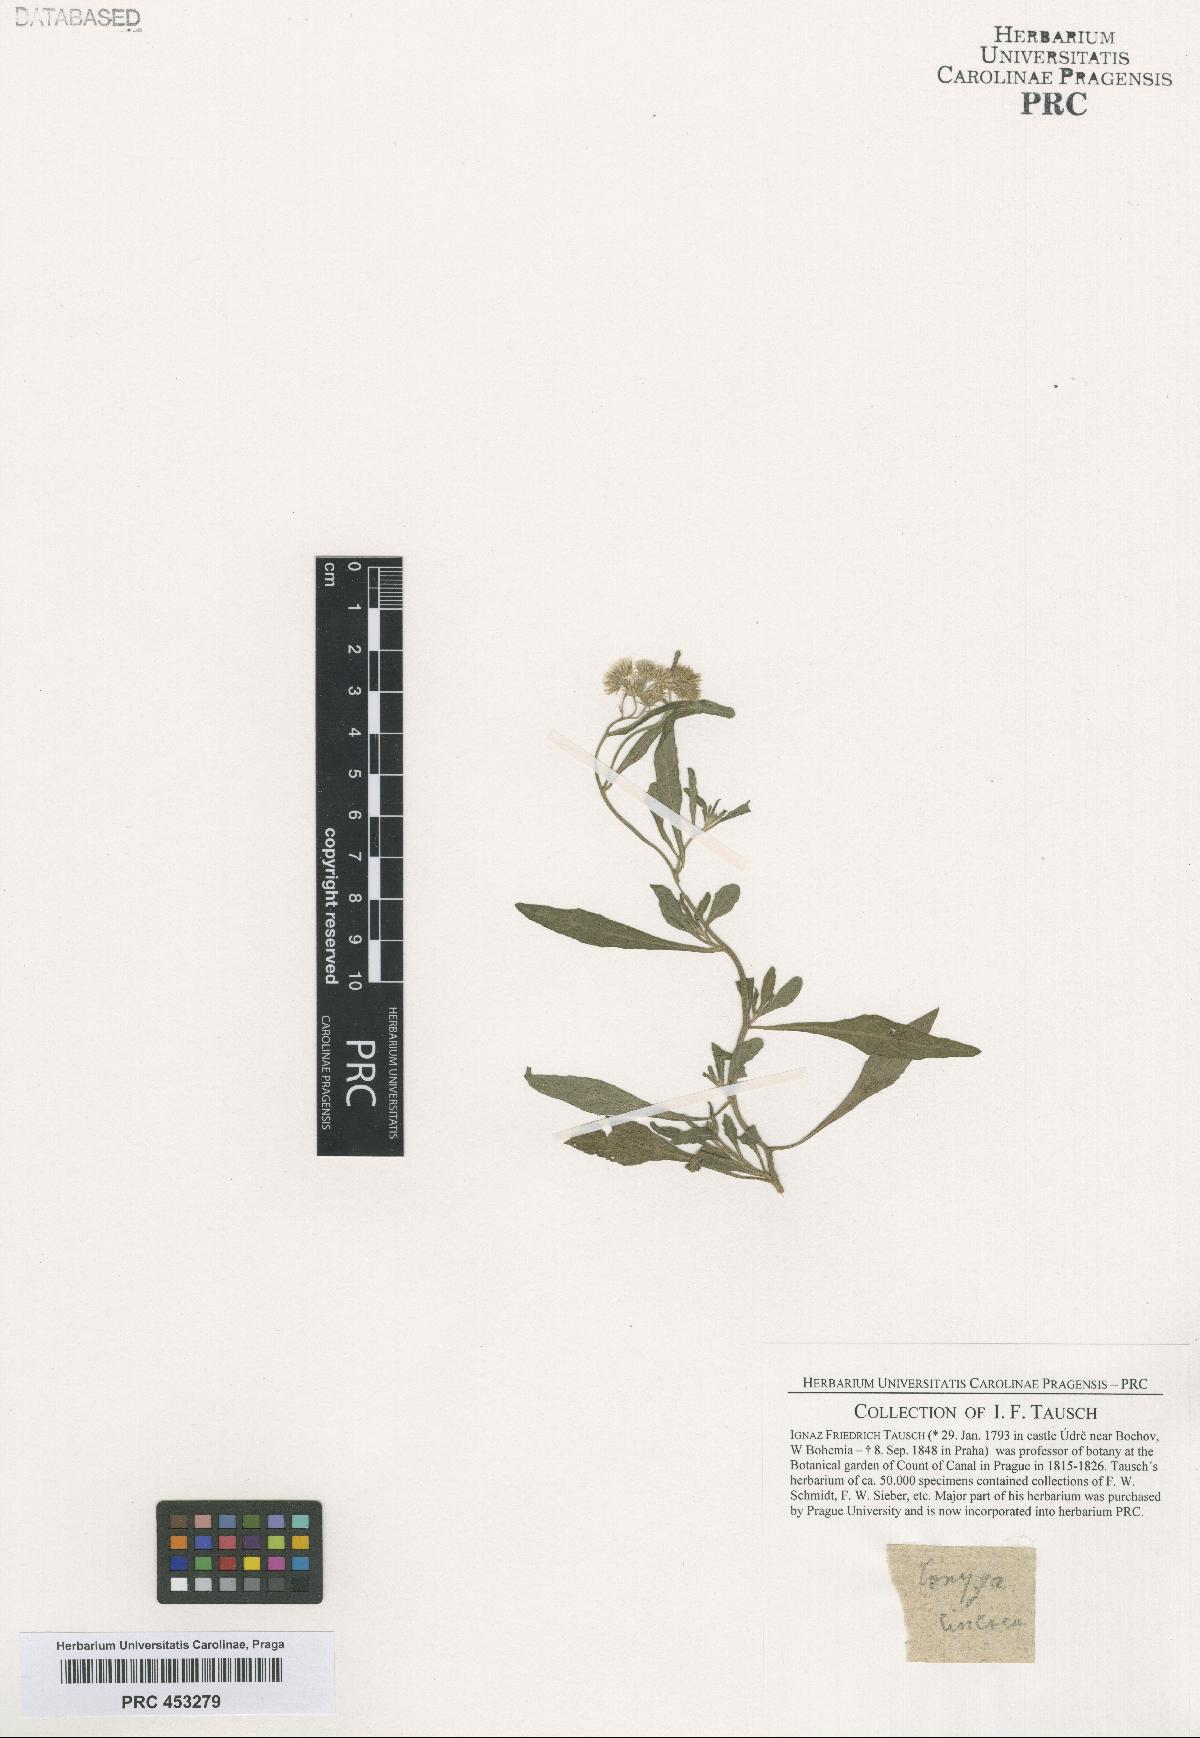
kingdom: Plantae
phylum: Tracheophyta
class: Magnoliopsida
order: Asterales
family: Asteraceae
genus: Cyanthillium
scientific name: Cyanthillium cinereum
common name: Little ironweed
